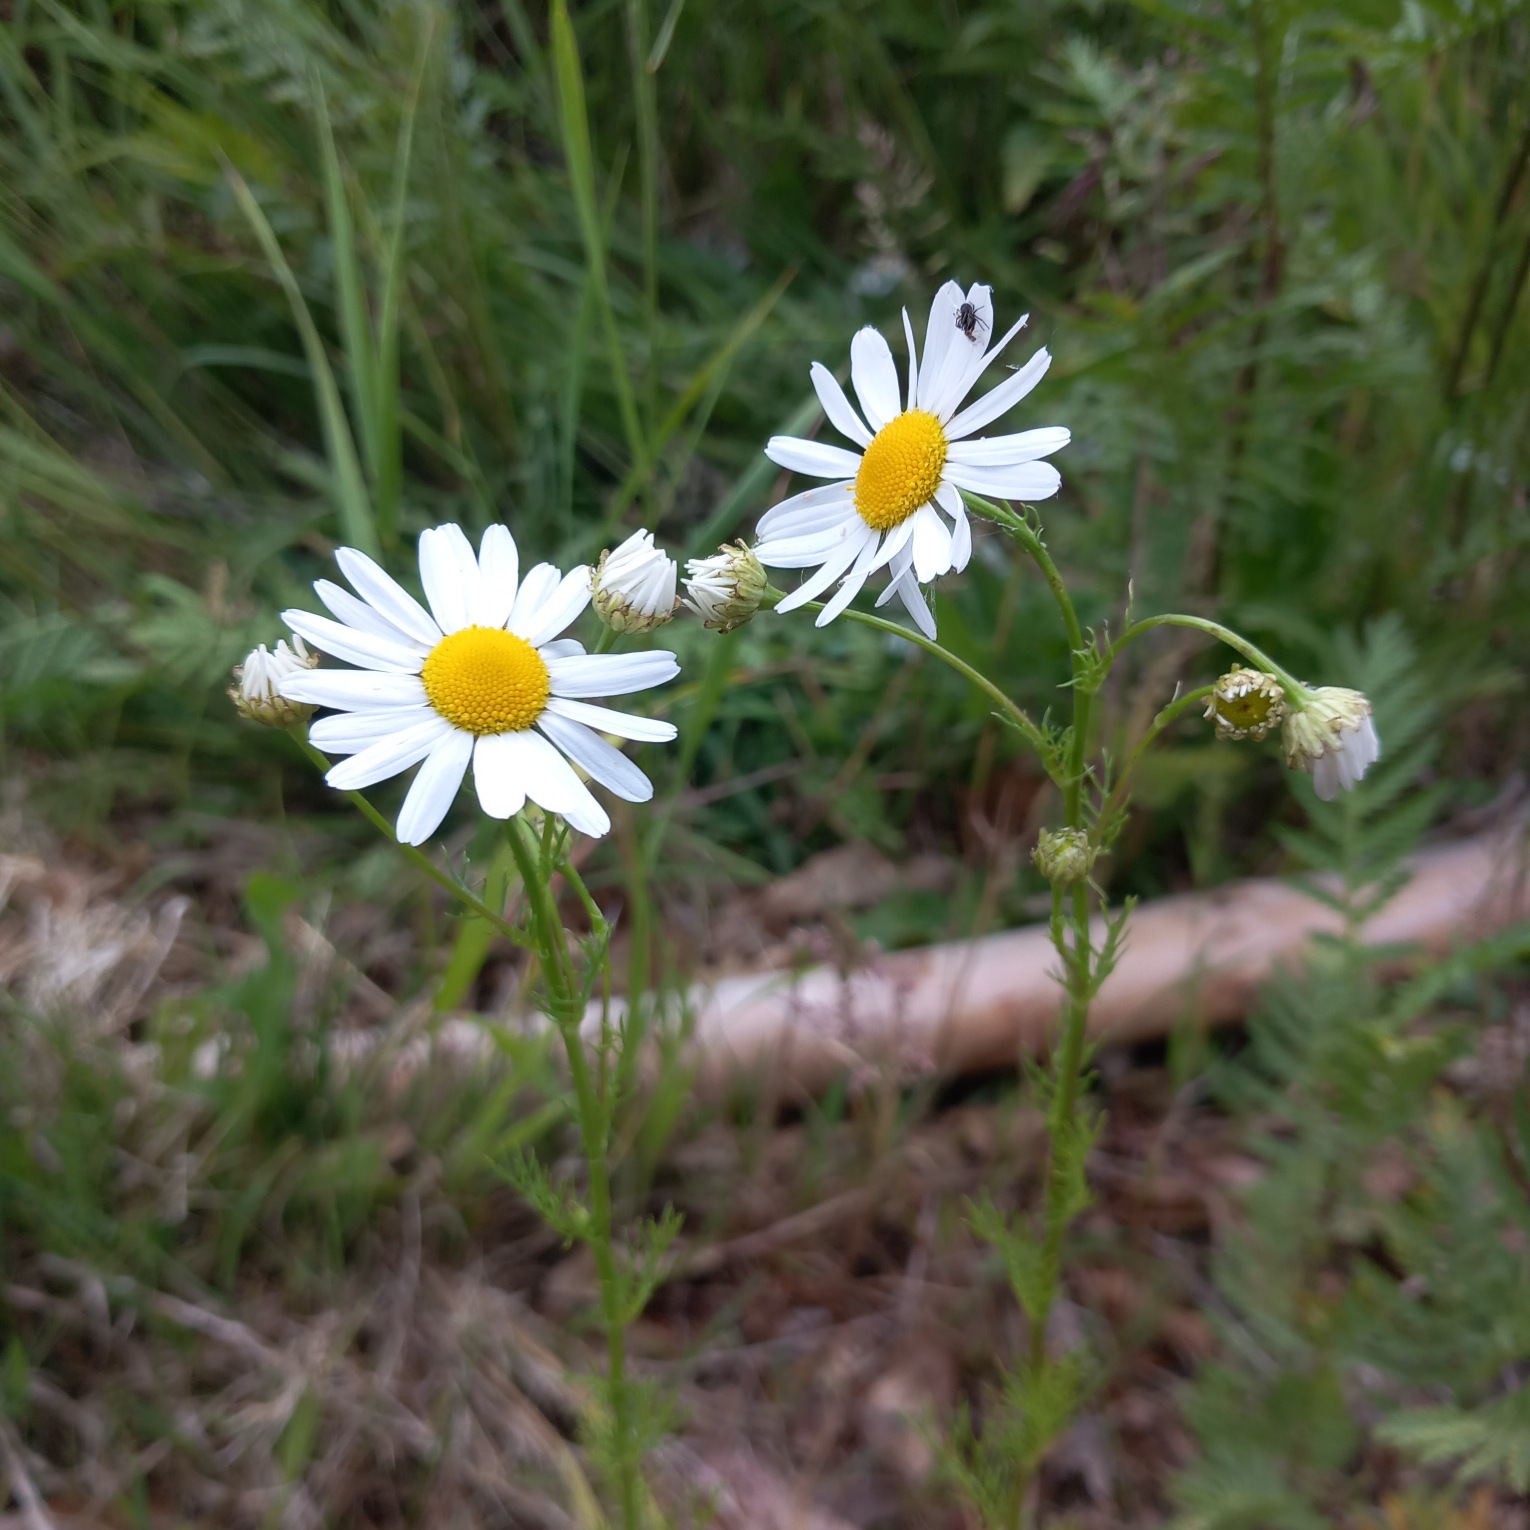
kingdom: Plantae
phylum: Tracheophyta
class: Magnoliopsida
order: Asterales
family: Asteraceae
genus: Tripleurospermum
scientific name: Tripleurospermum inodorum
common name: Lugtløs kamille
